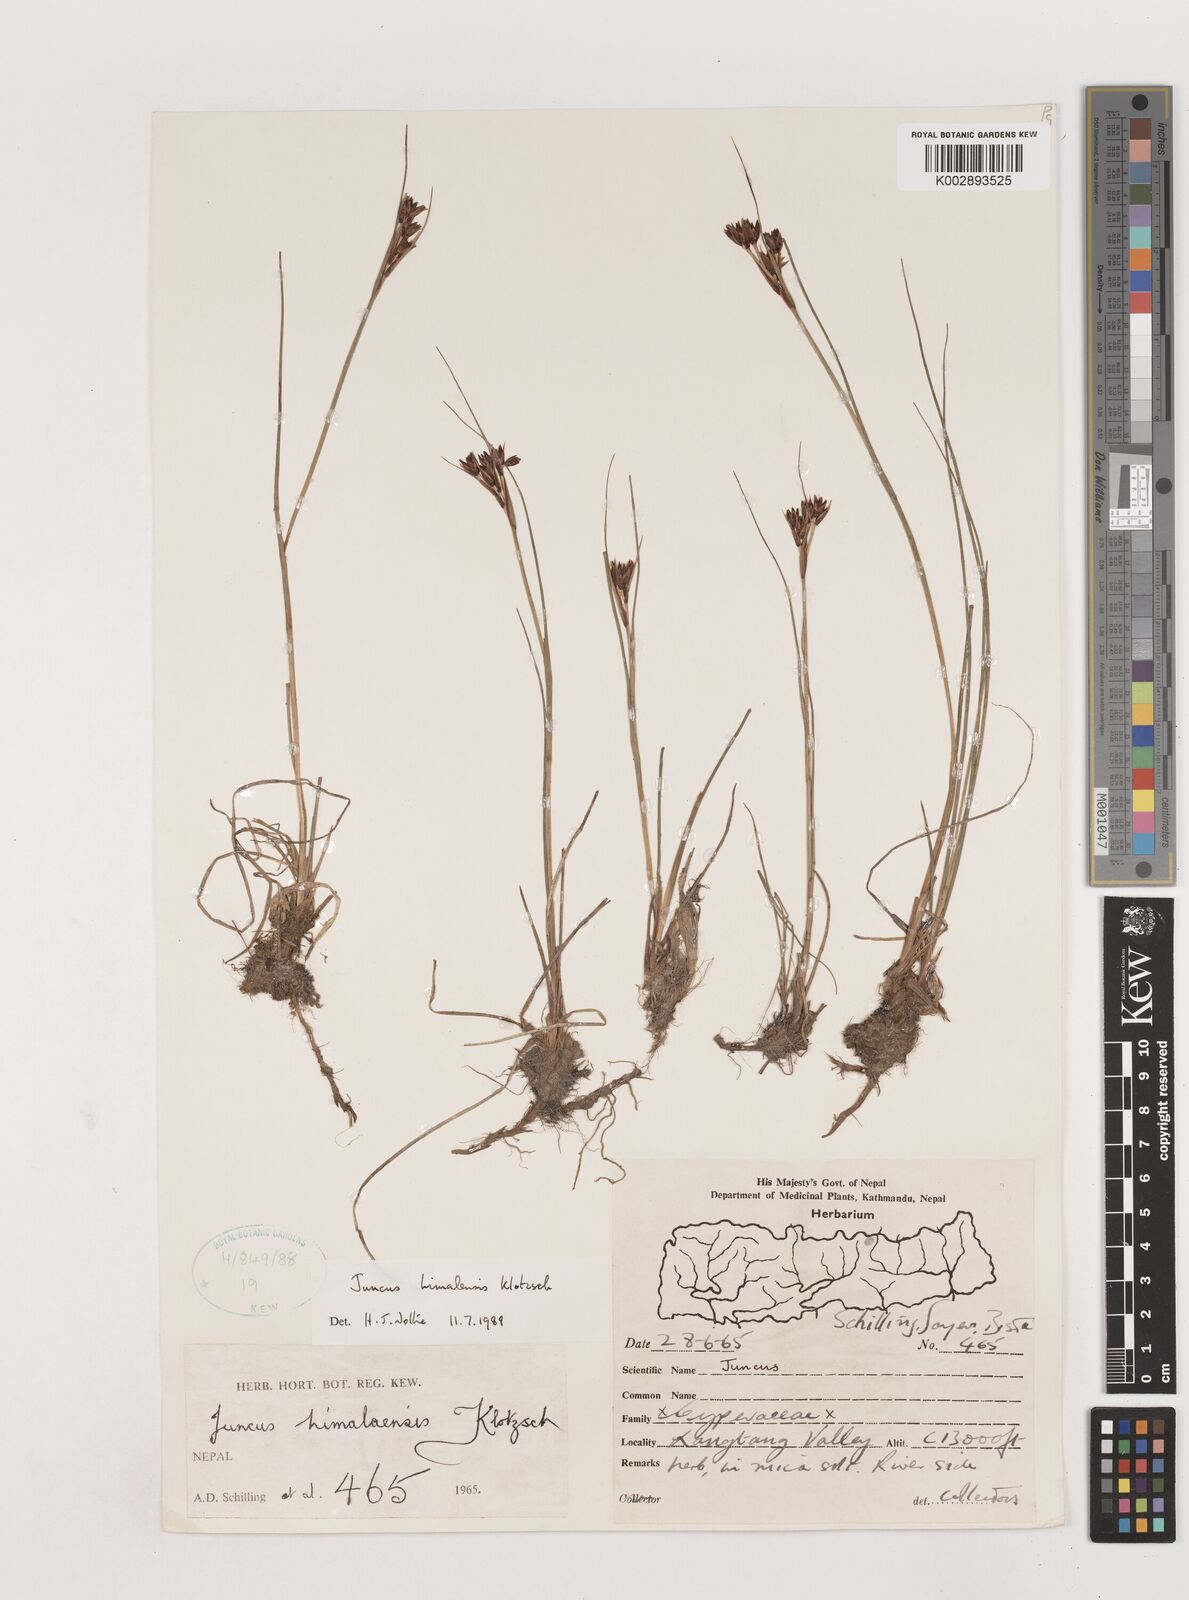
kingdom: Plantae
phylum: Tracheophyta
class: Liliopsida
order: Poales
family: Juncaceae
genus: Juncus
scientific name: Juncus himalensis
